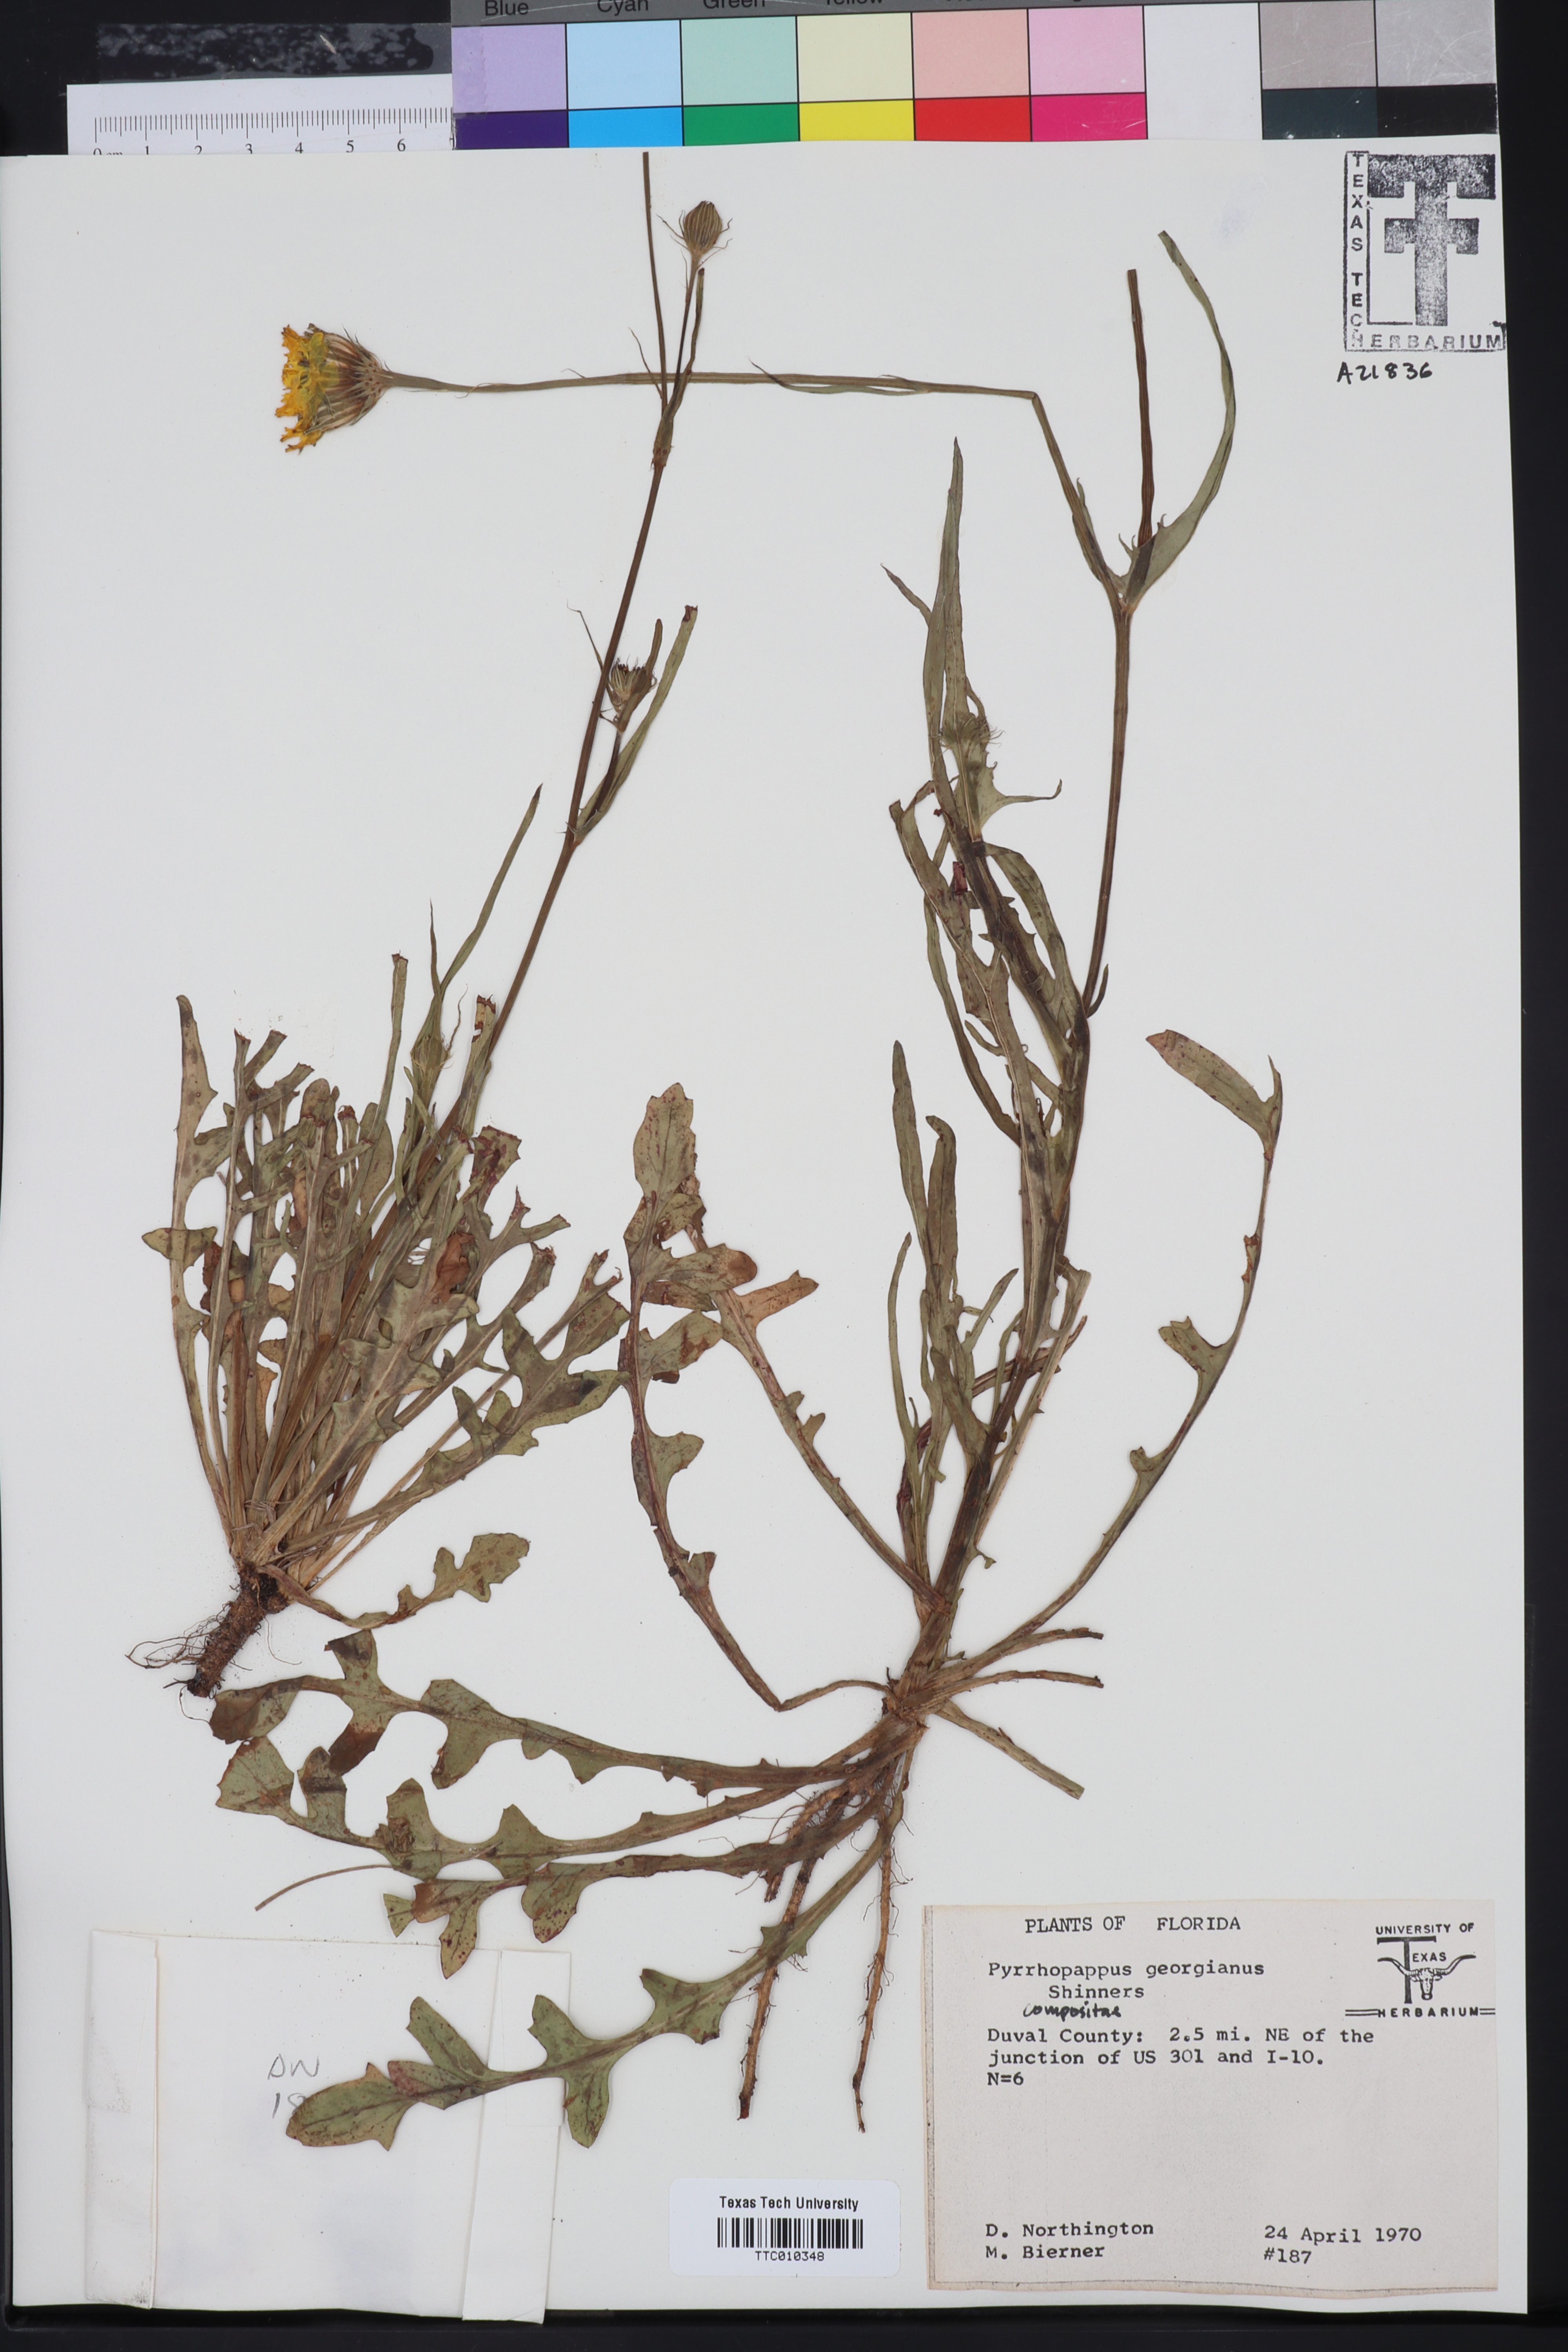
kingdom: Plantae
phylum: Tracheophyta
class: Magnoliopsida
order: Asterales
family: Asteraceae
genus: Pyrrhopappus
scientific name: Pyrrhopappus carolinianus
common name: Carolina desert-chicory
